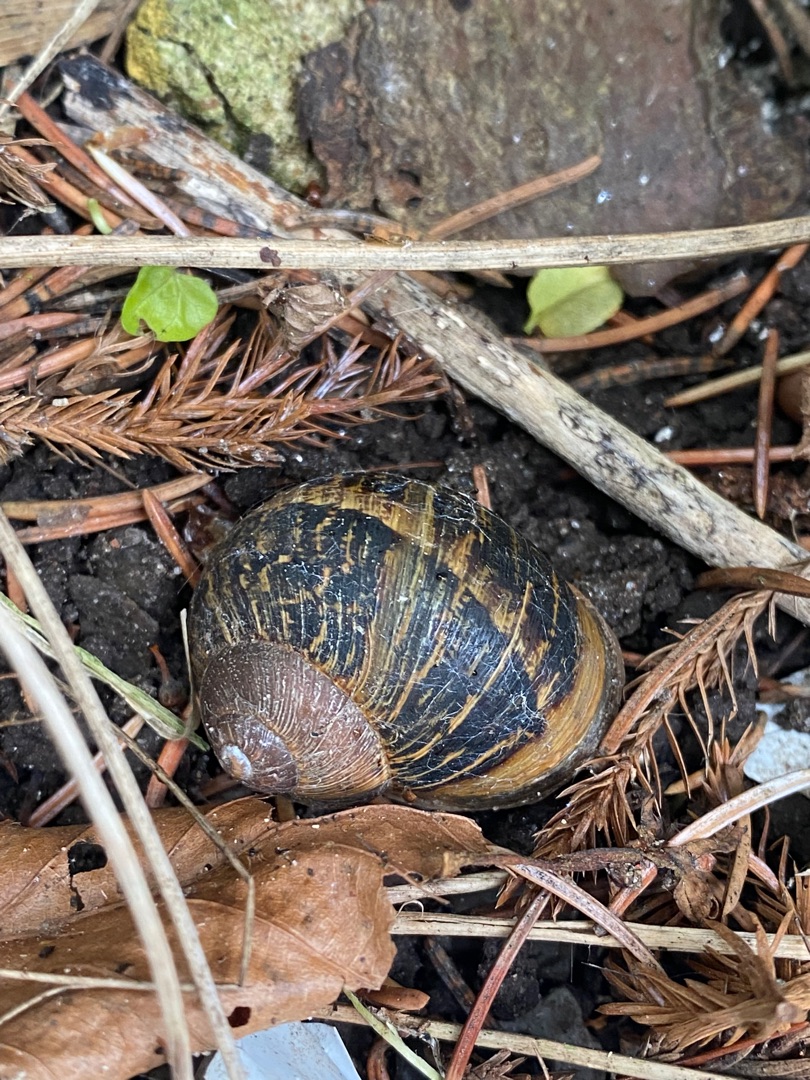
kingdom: Animalia
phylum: Mollusca
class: Gastropoda
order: Stylommatophora
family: Helicidae
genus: Cornu
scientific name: Cornu aspersum
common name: Plettet voldsnegl
